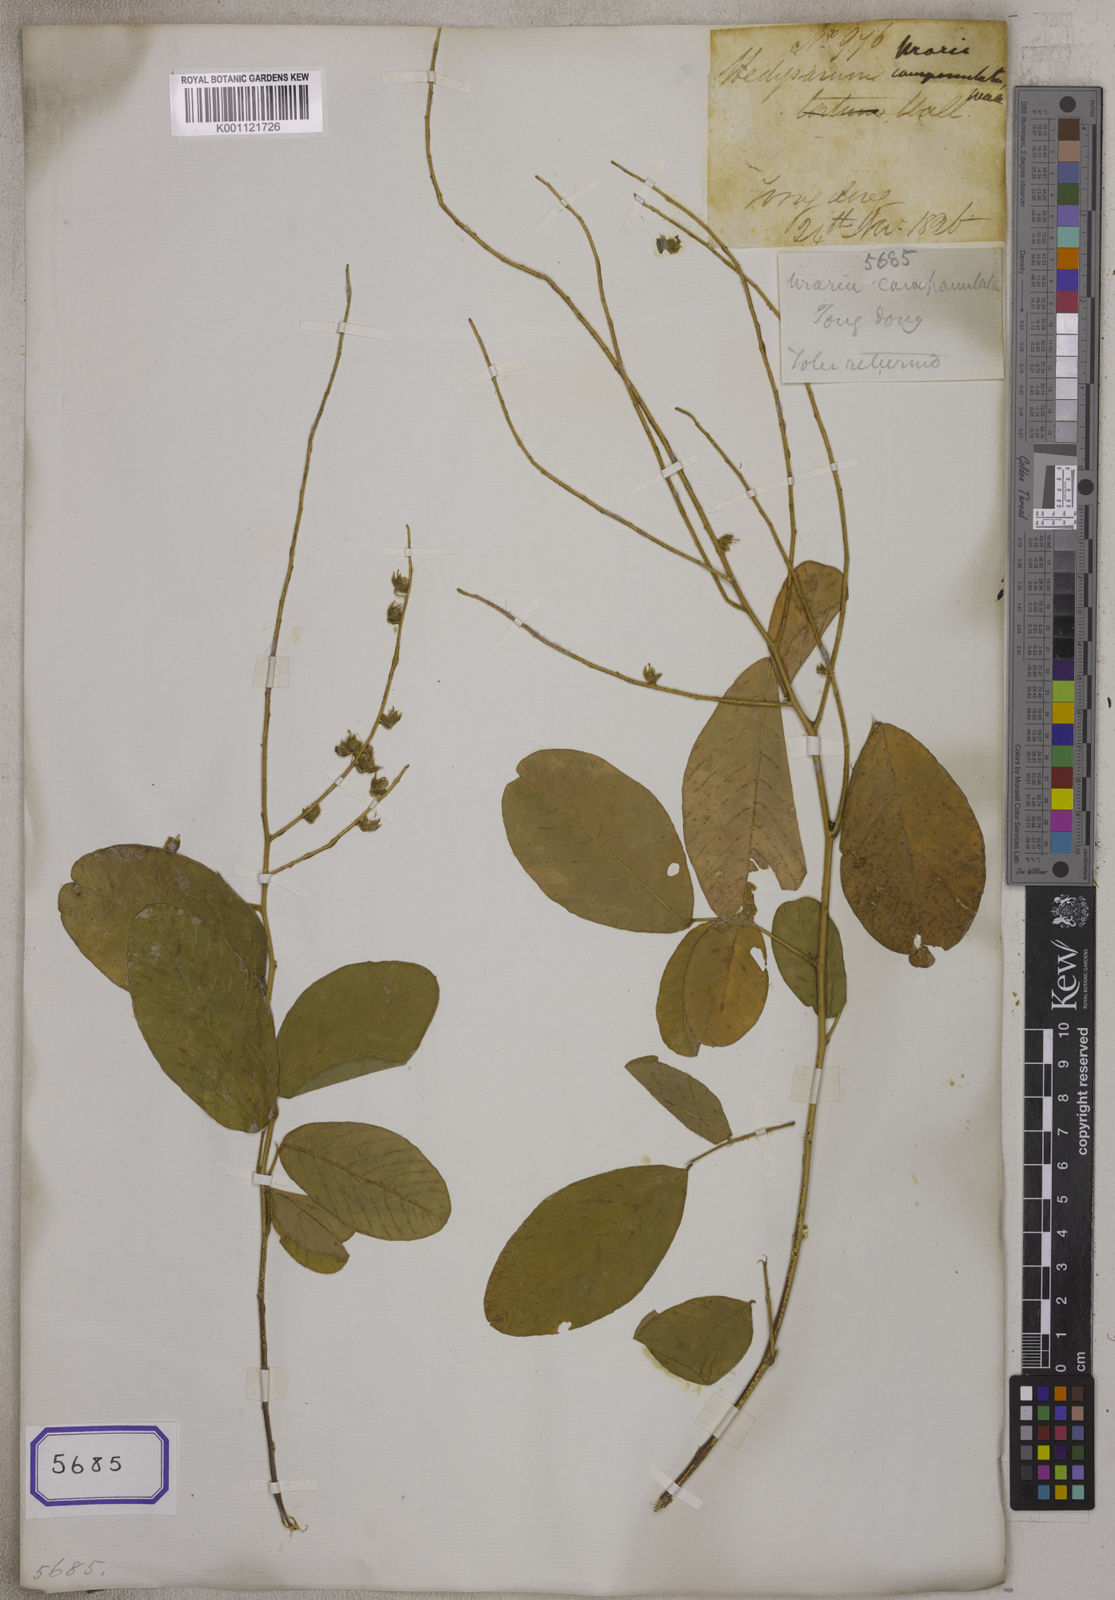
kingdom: Plantae
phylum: Tracheophyta
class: Magnoliopsida
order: Fabales
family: Fabaceae
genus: Uraria
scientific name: Uraria
